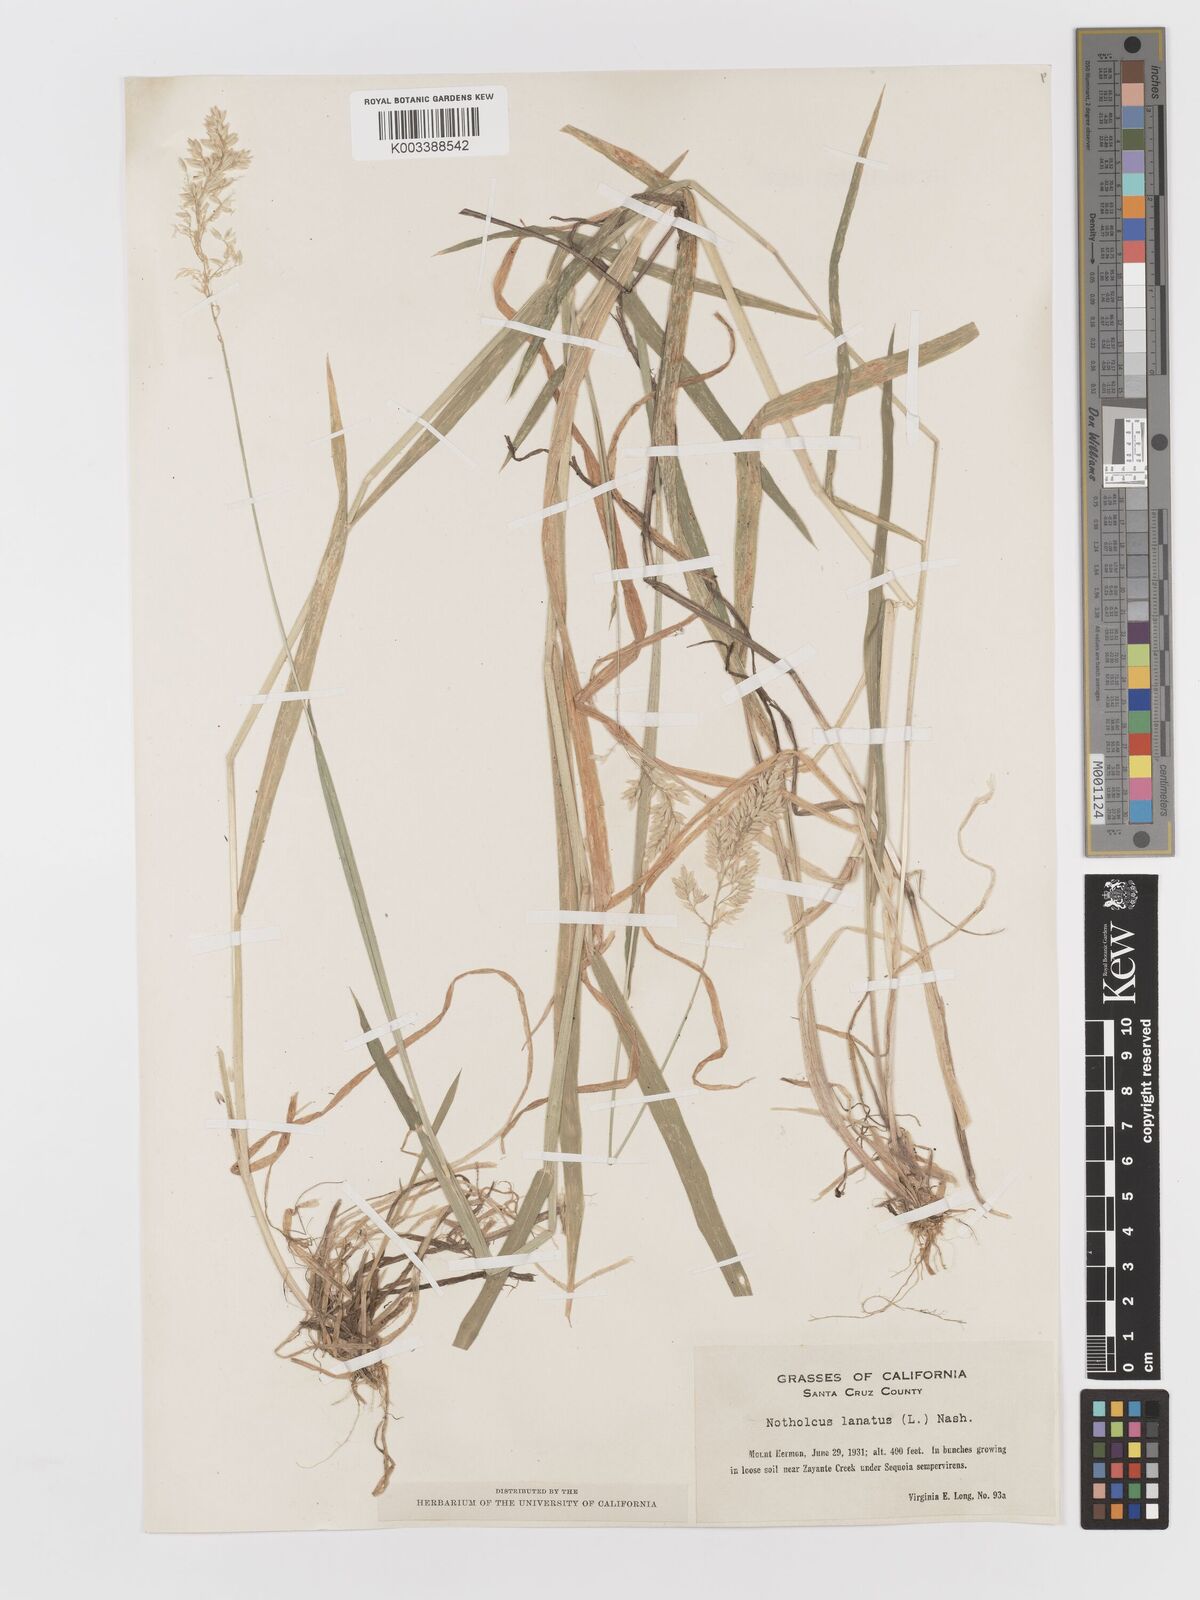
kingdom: Plantae
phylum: Tracheophyta
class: Liliopsida
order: Poales
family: Poaceae
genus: Holcus
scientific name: Holcus lanatus
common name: Yorkshire-fog
